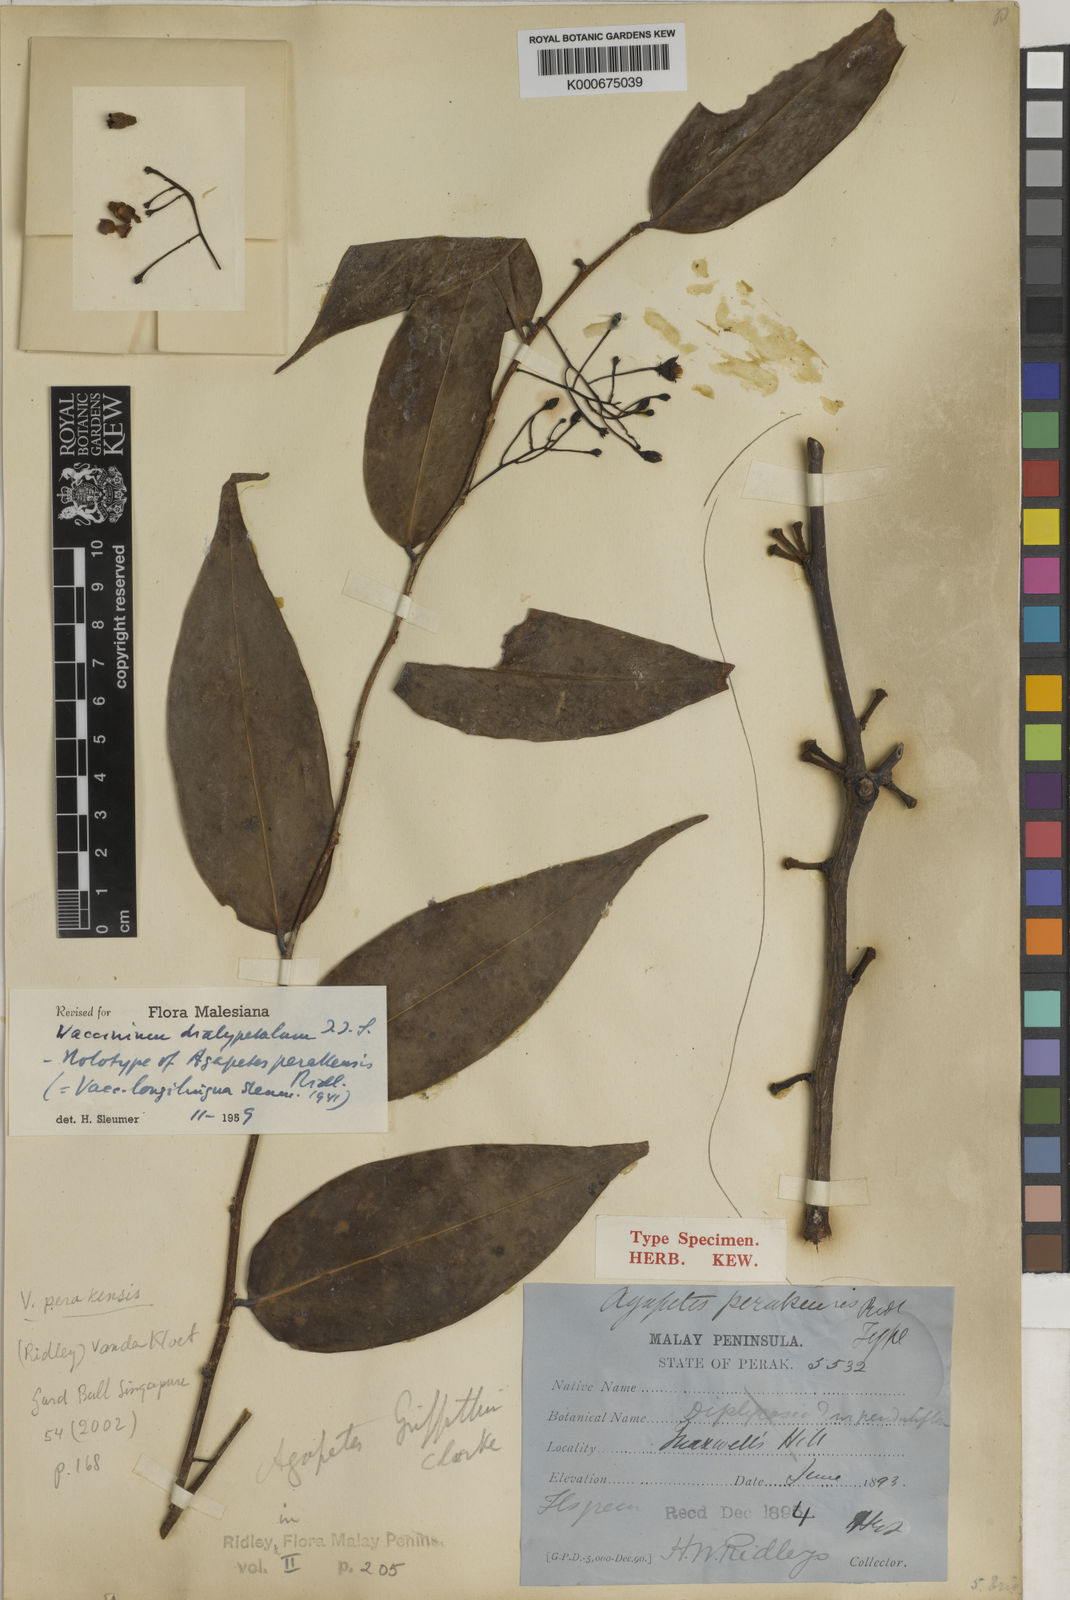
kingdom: Plantae
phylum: Tracheophyta
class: Magnoliopsida
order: Ericales
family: Ericaceae
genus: Vaccinium
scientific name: Vaccinium dialypetalum
